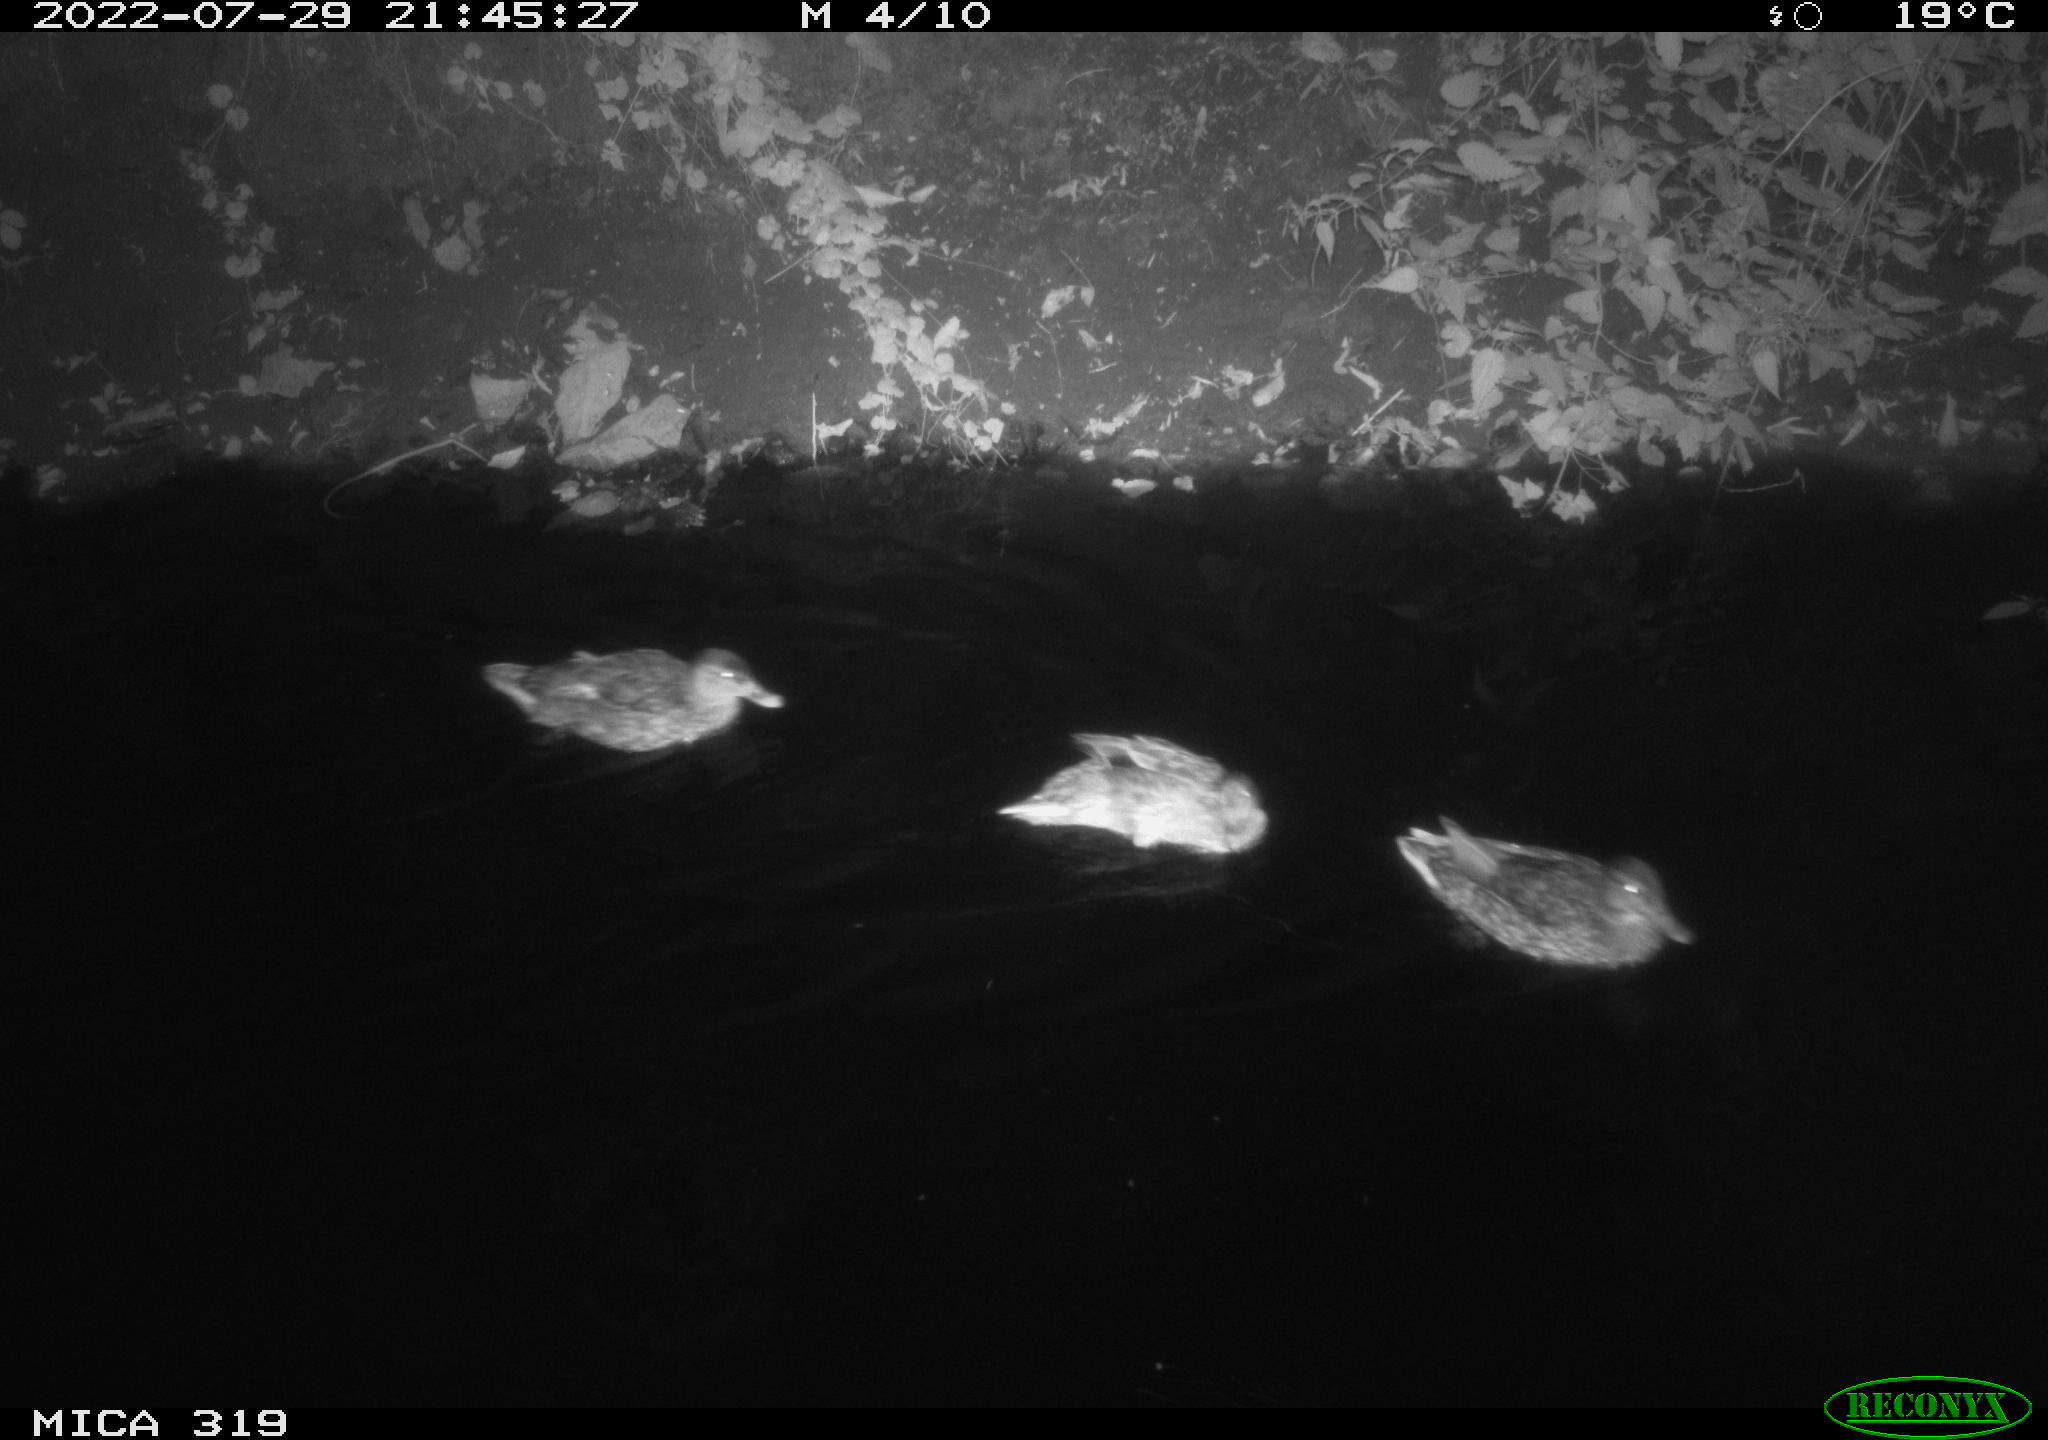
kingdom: Animalia
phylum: Chordata
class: Aves
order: Anseriformes
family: Anatidae
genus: Anas
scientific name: Anas
